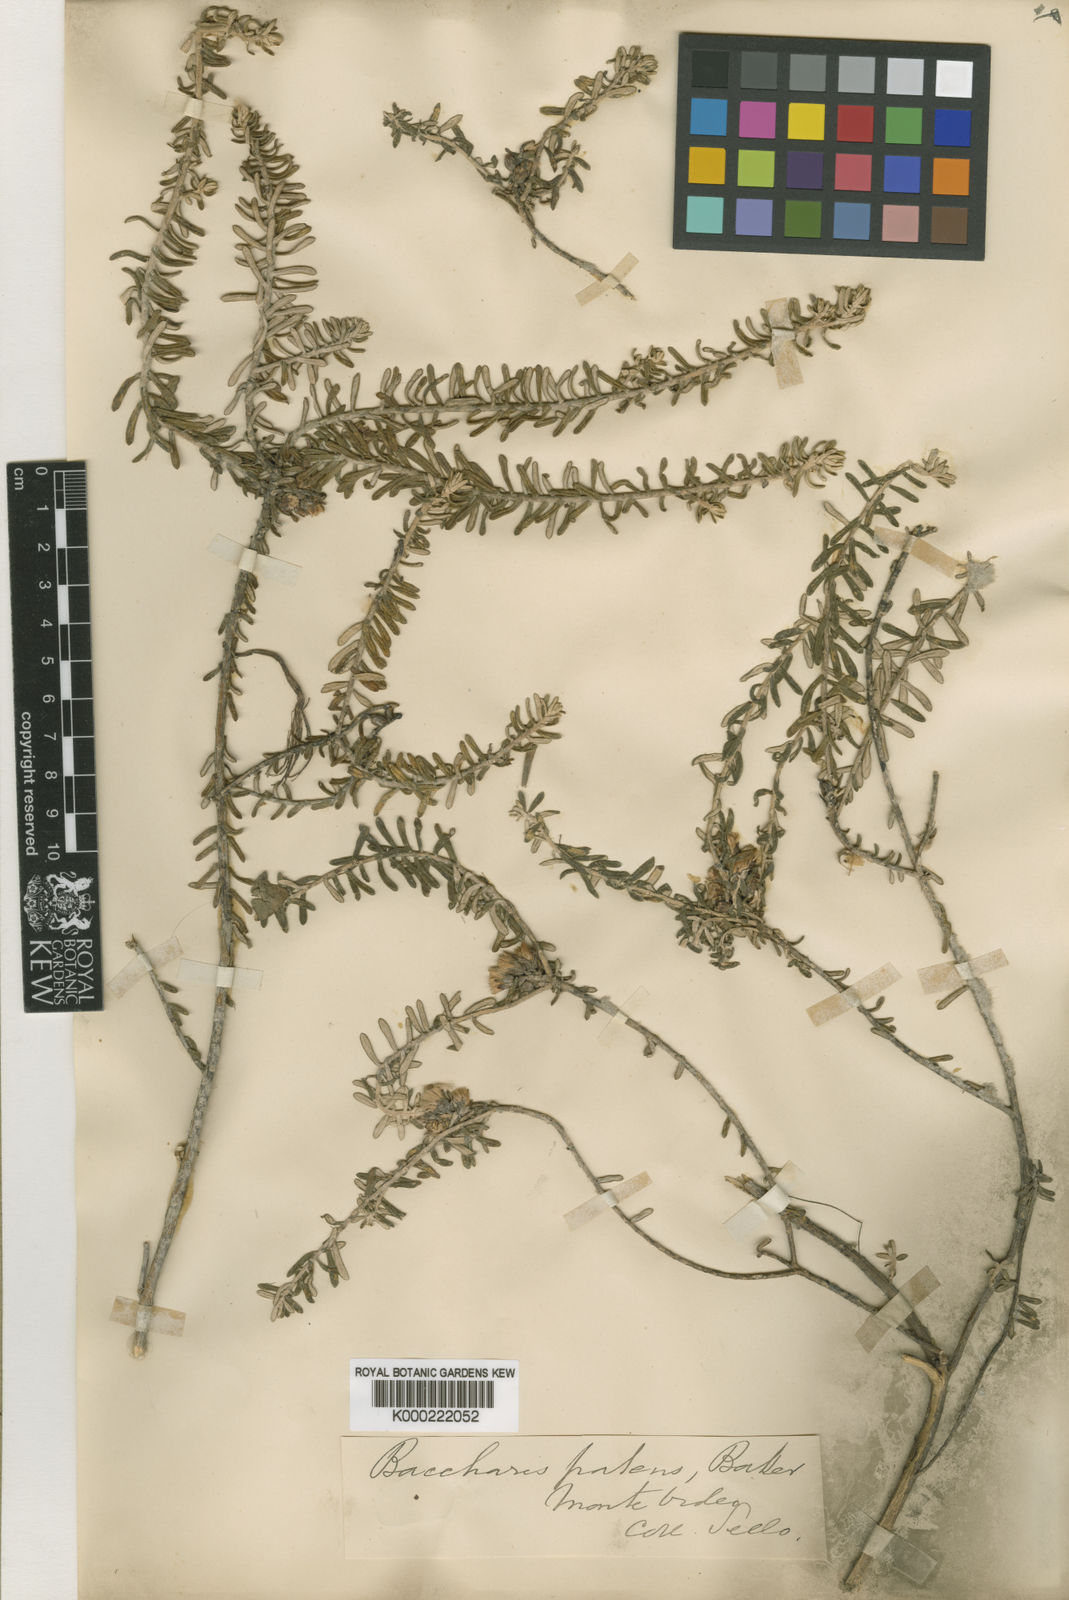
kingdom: Plantae
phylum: Tracheophyta
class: Magnoliopsida
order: Asterales
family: Asteraceae
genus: Baccharis
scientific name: Baccharis patens
